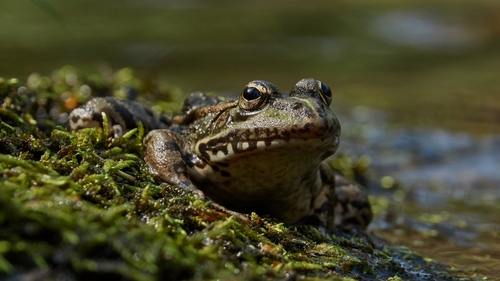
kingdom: Animalia
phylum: Chordata
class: Amphibia
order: Anura
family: Ranidae
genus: Pelophylax
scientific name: Pelophylax perezi
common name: Perez's frog
